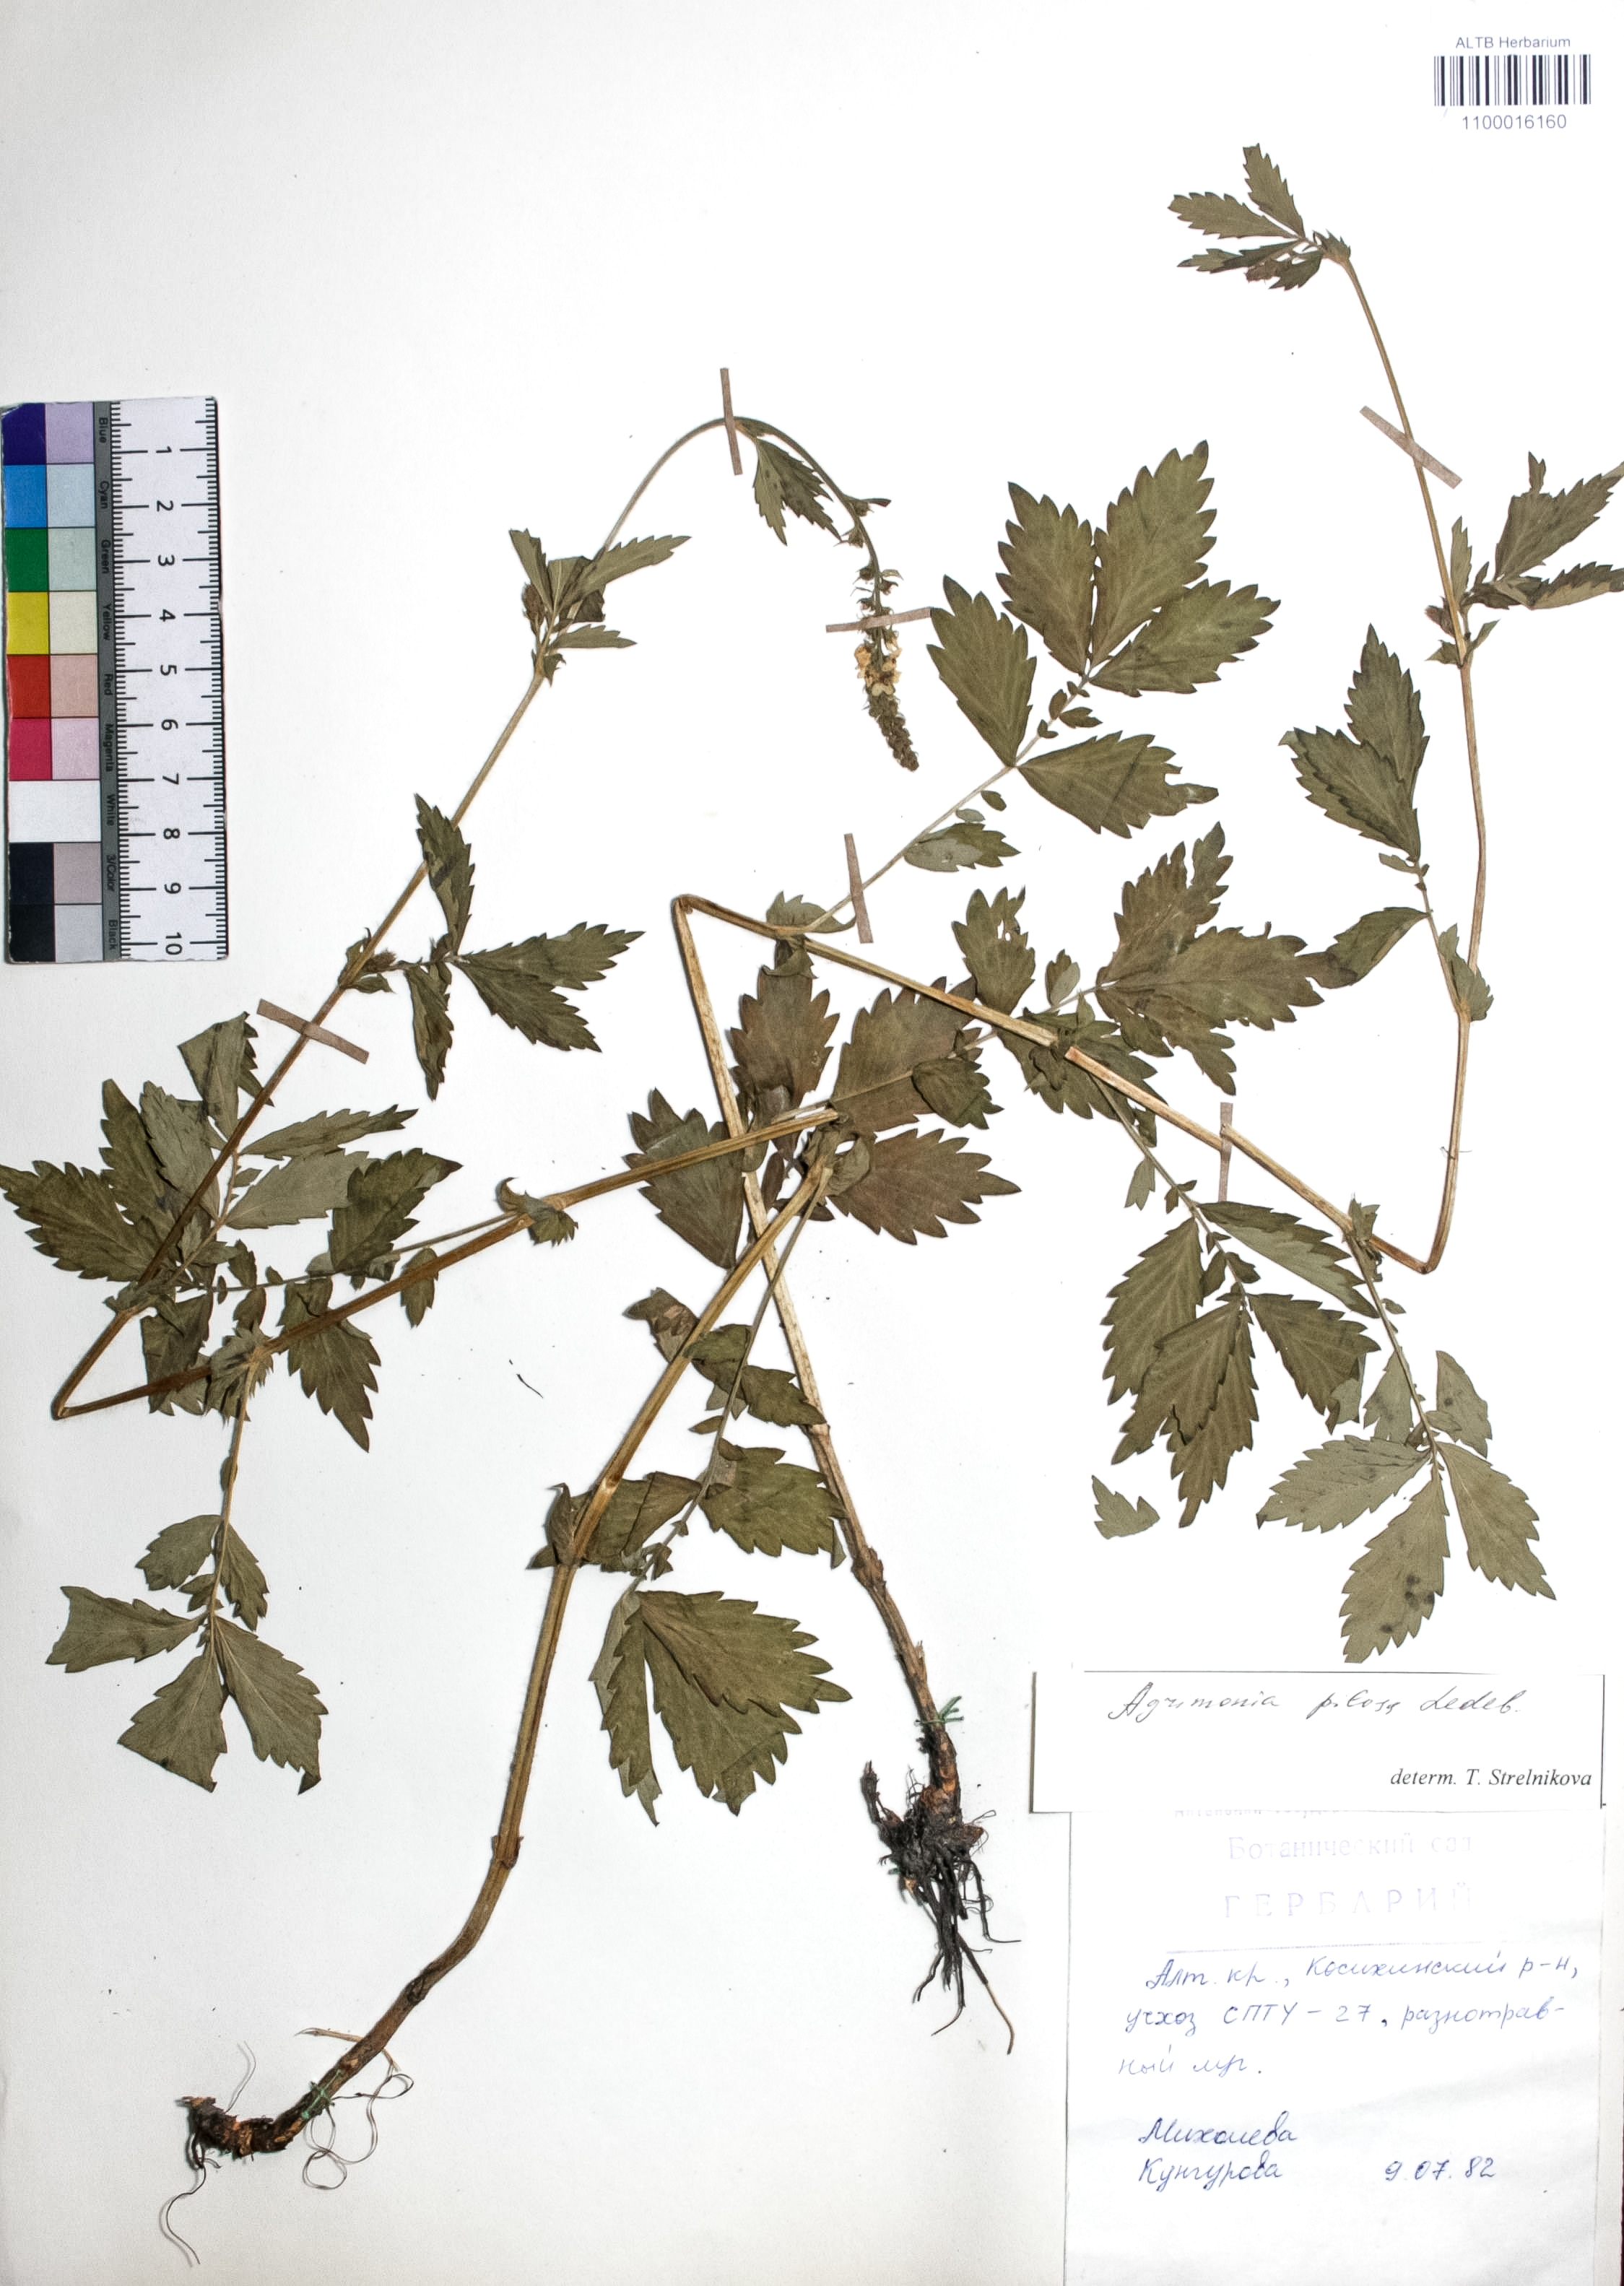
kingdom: Plantae
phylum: Tracheophyta
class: Magnoliopsida
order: Rosales
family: Rosaceae
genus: Agrimonia
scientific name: Agrimonia pilosa
